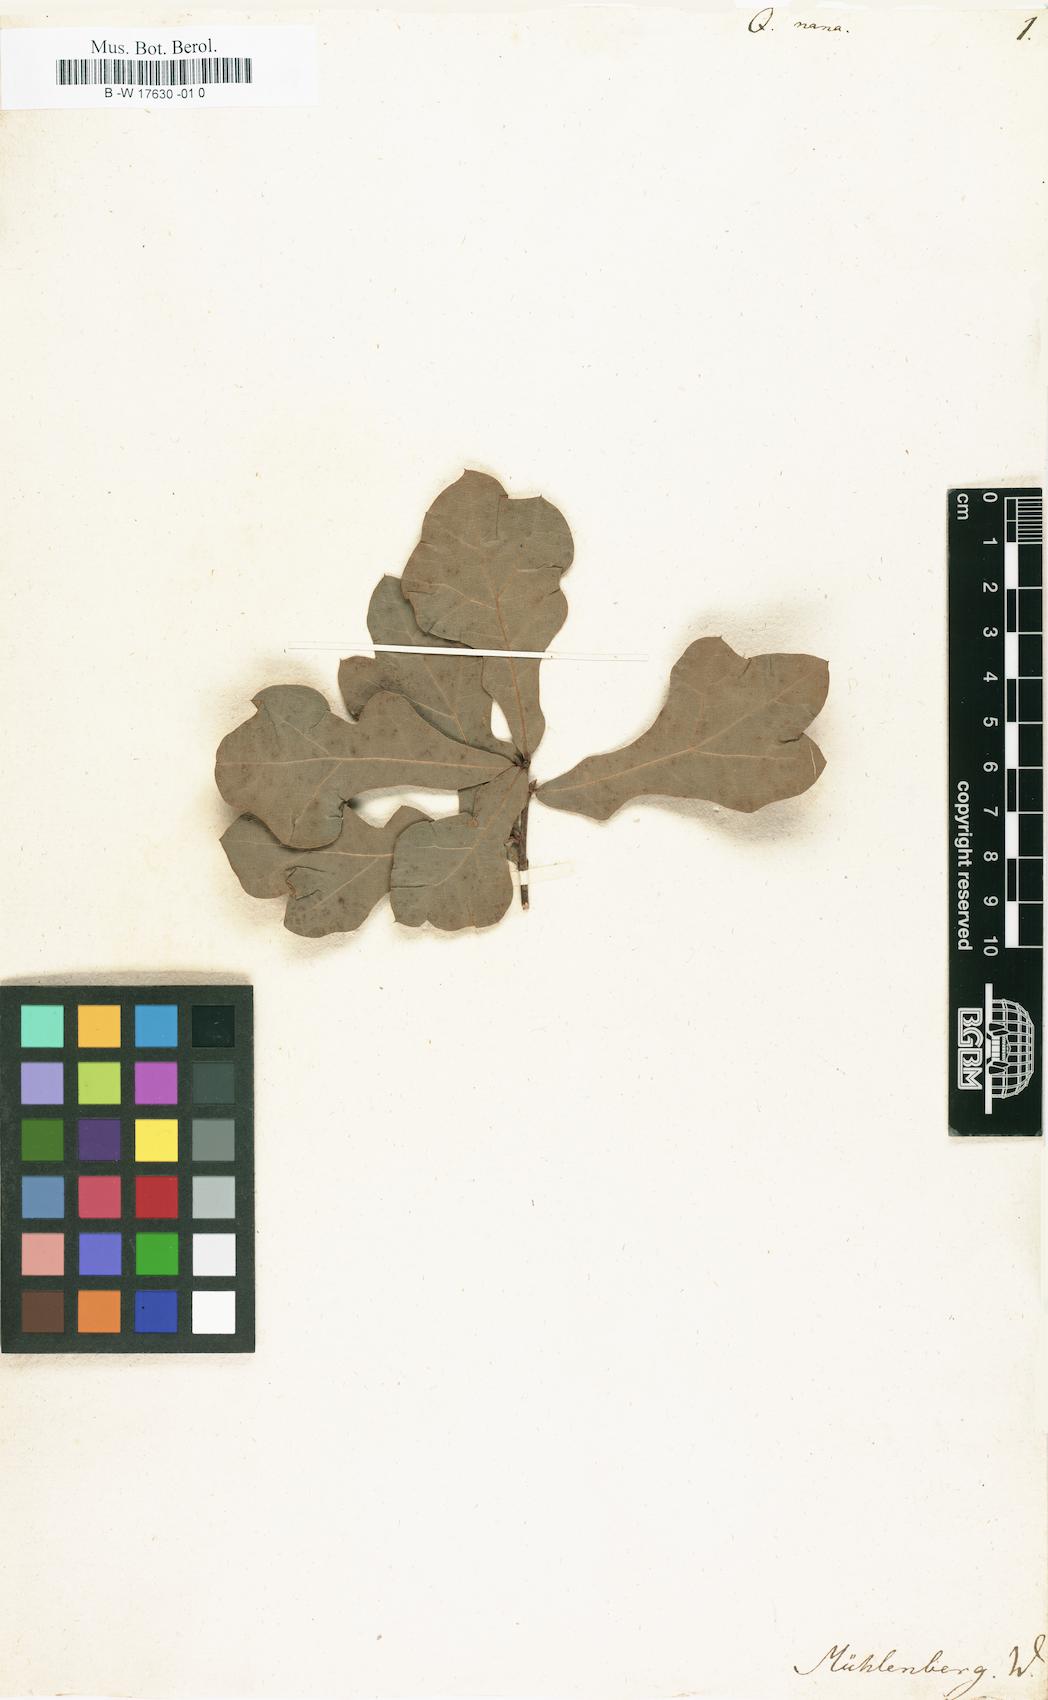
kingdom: Plantae
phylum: Tracheophyta
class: Magnoliopsida
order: Fagales
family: Fagaceae
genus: Quercus
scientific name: Quercus
